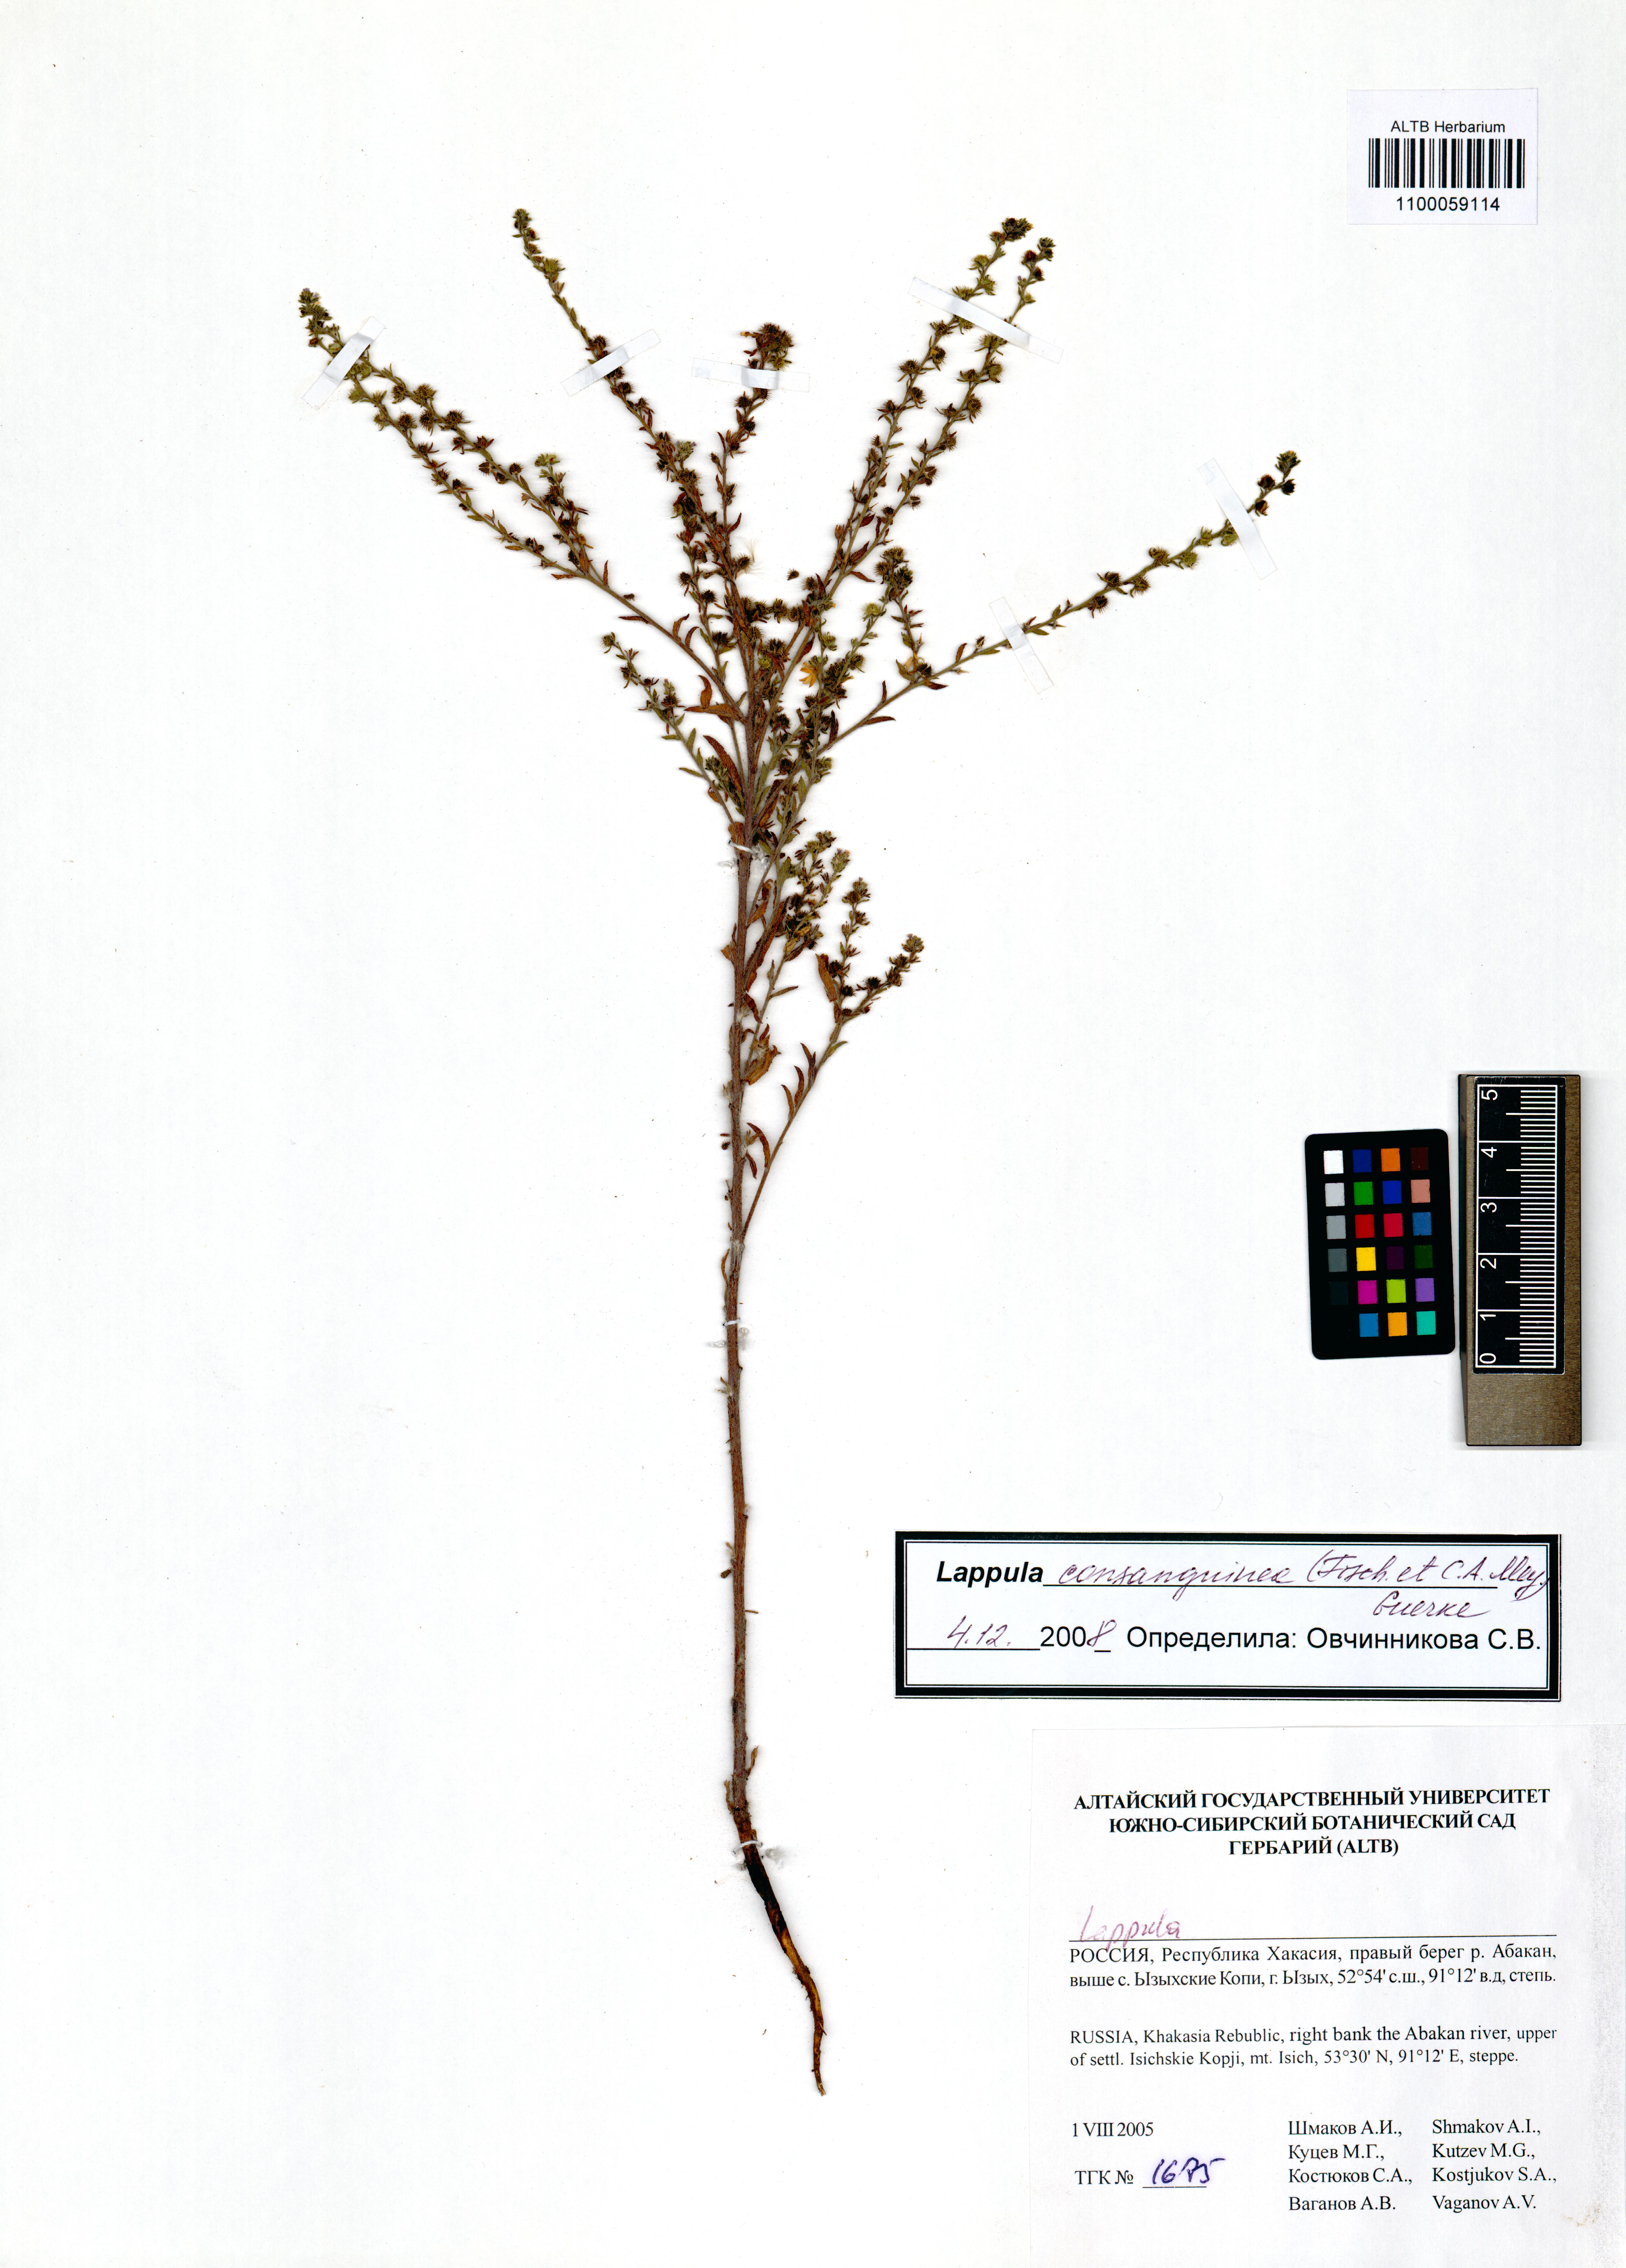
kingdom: Plantae
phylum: Tracheophyta
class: Magnoliopsida
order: Boraginales
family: Boraginaceae
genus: Lappula
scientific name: Lappula squarrosa
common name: European stickseed
